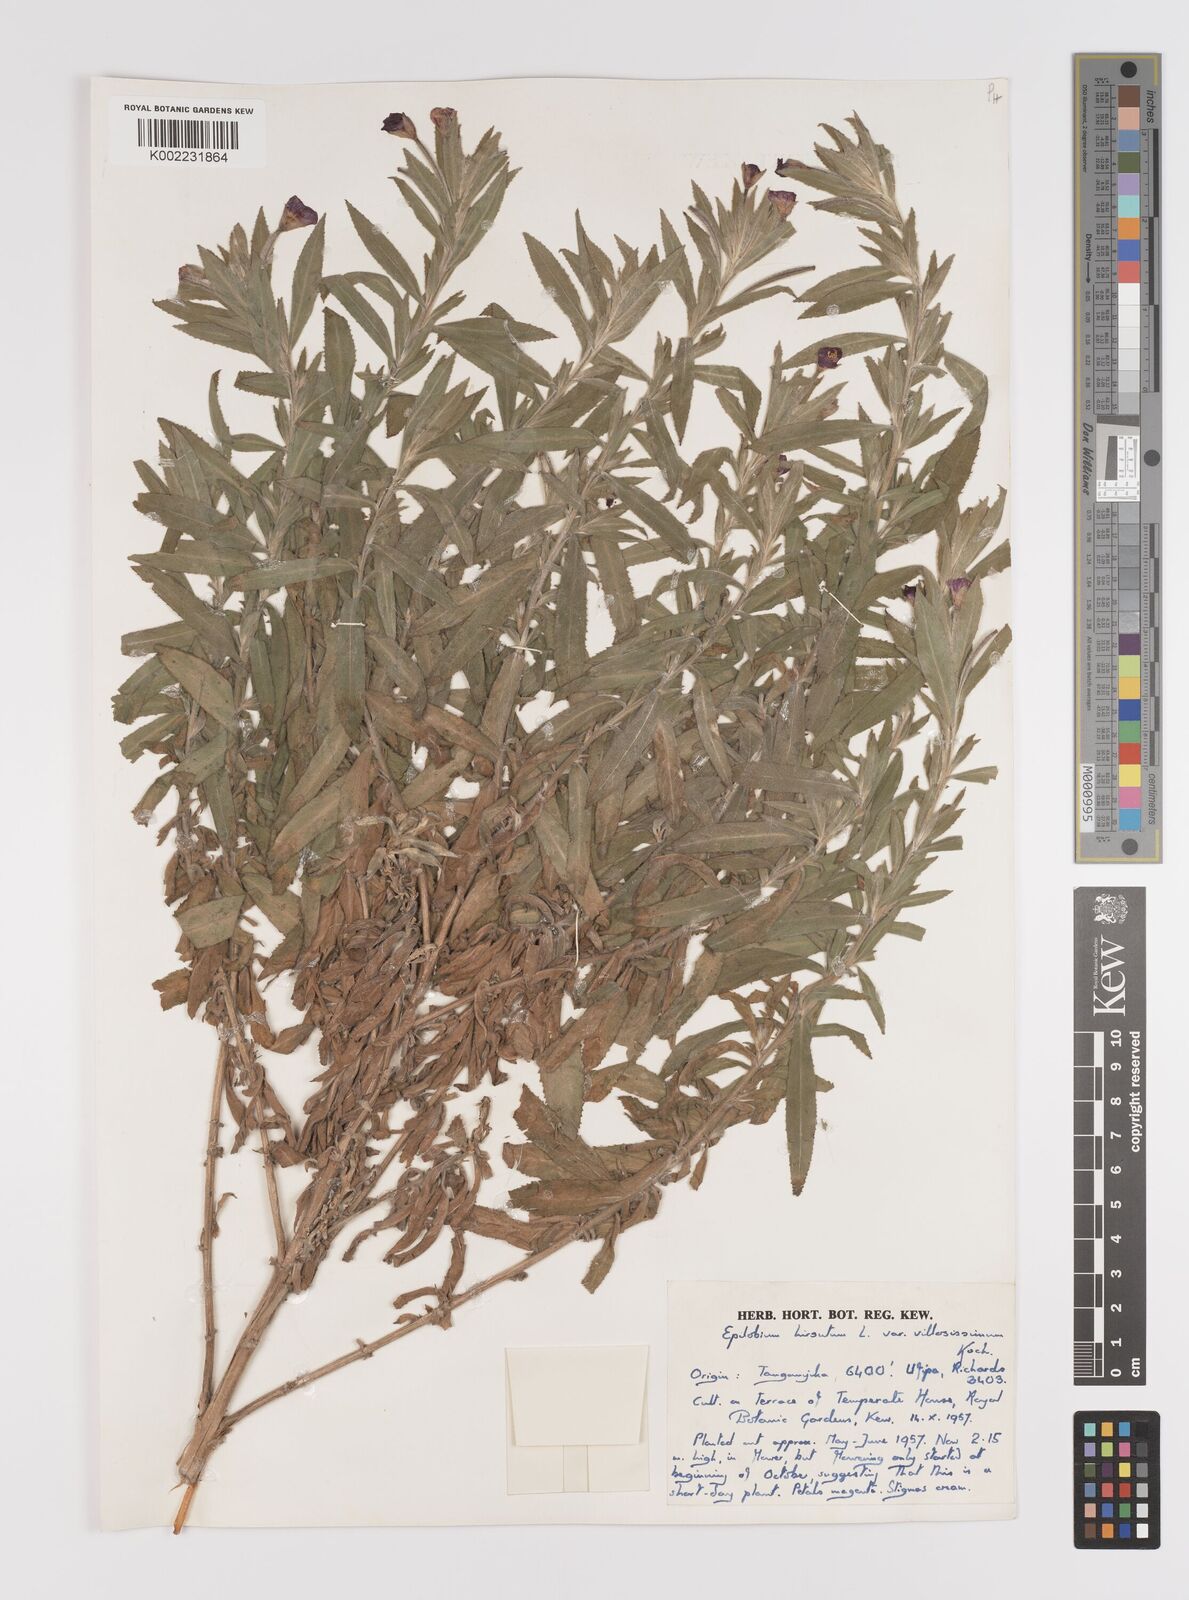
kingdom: Plantae
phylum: Tracheophyta
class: Magnoliopsida
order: Myrtales
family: Onagraceae
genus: Epilobium
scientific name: Epilobium hirsutum
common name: Great willowherb
